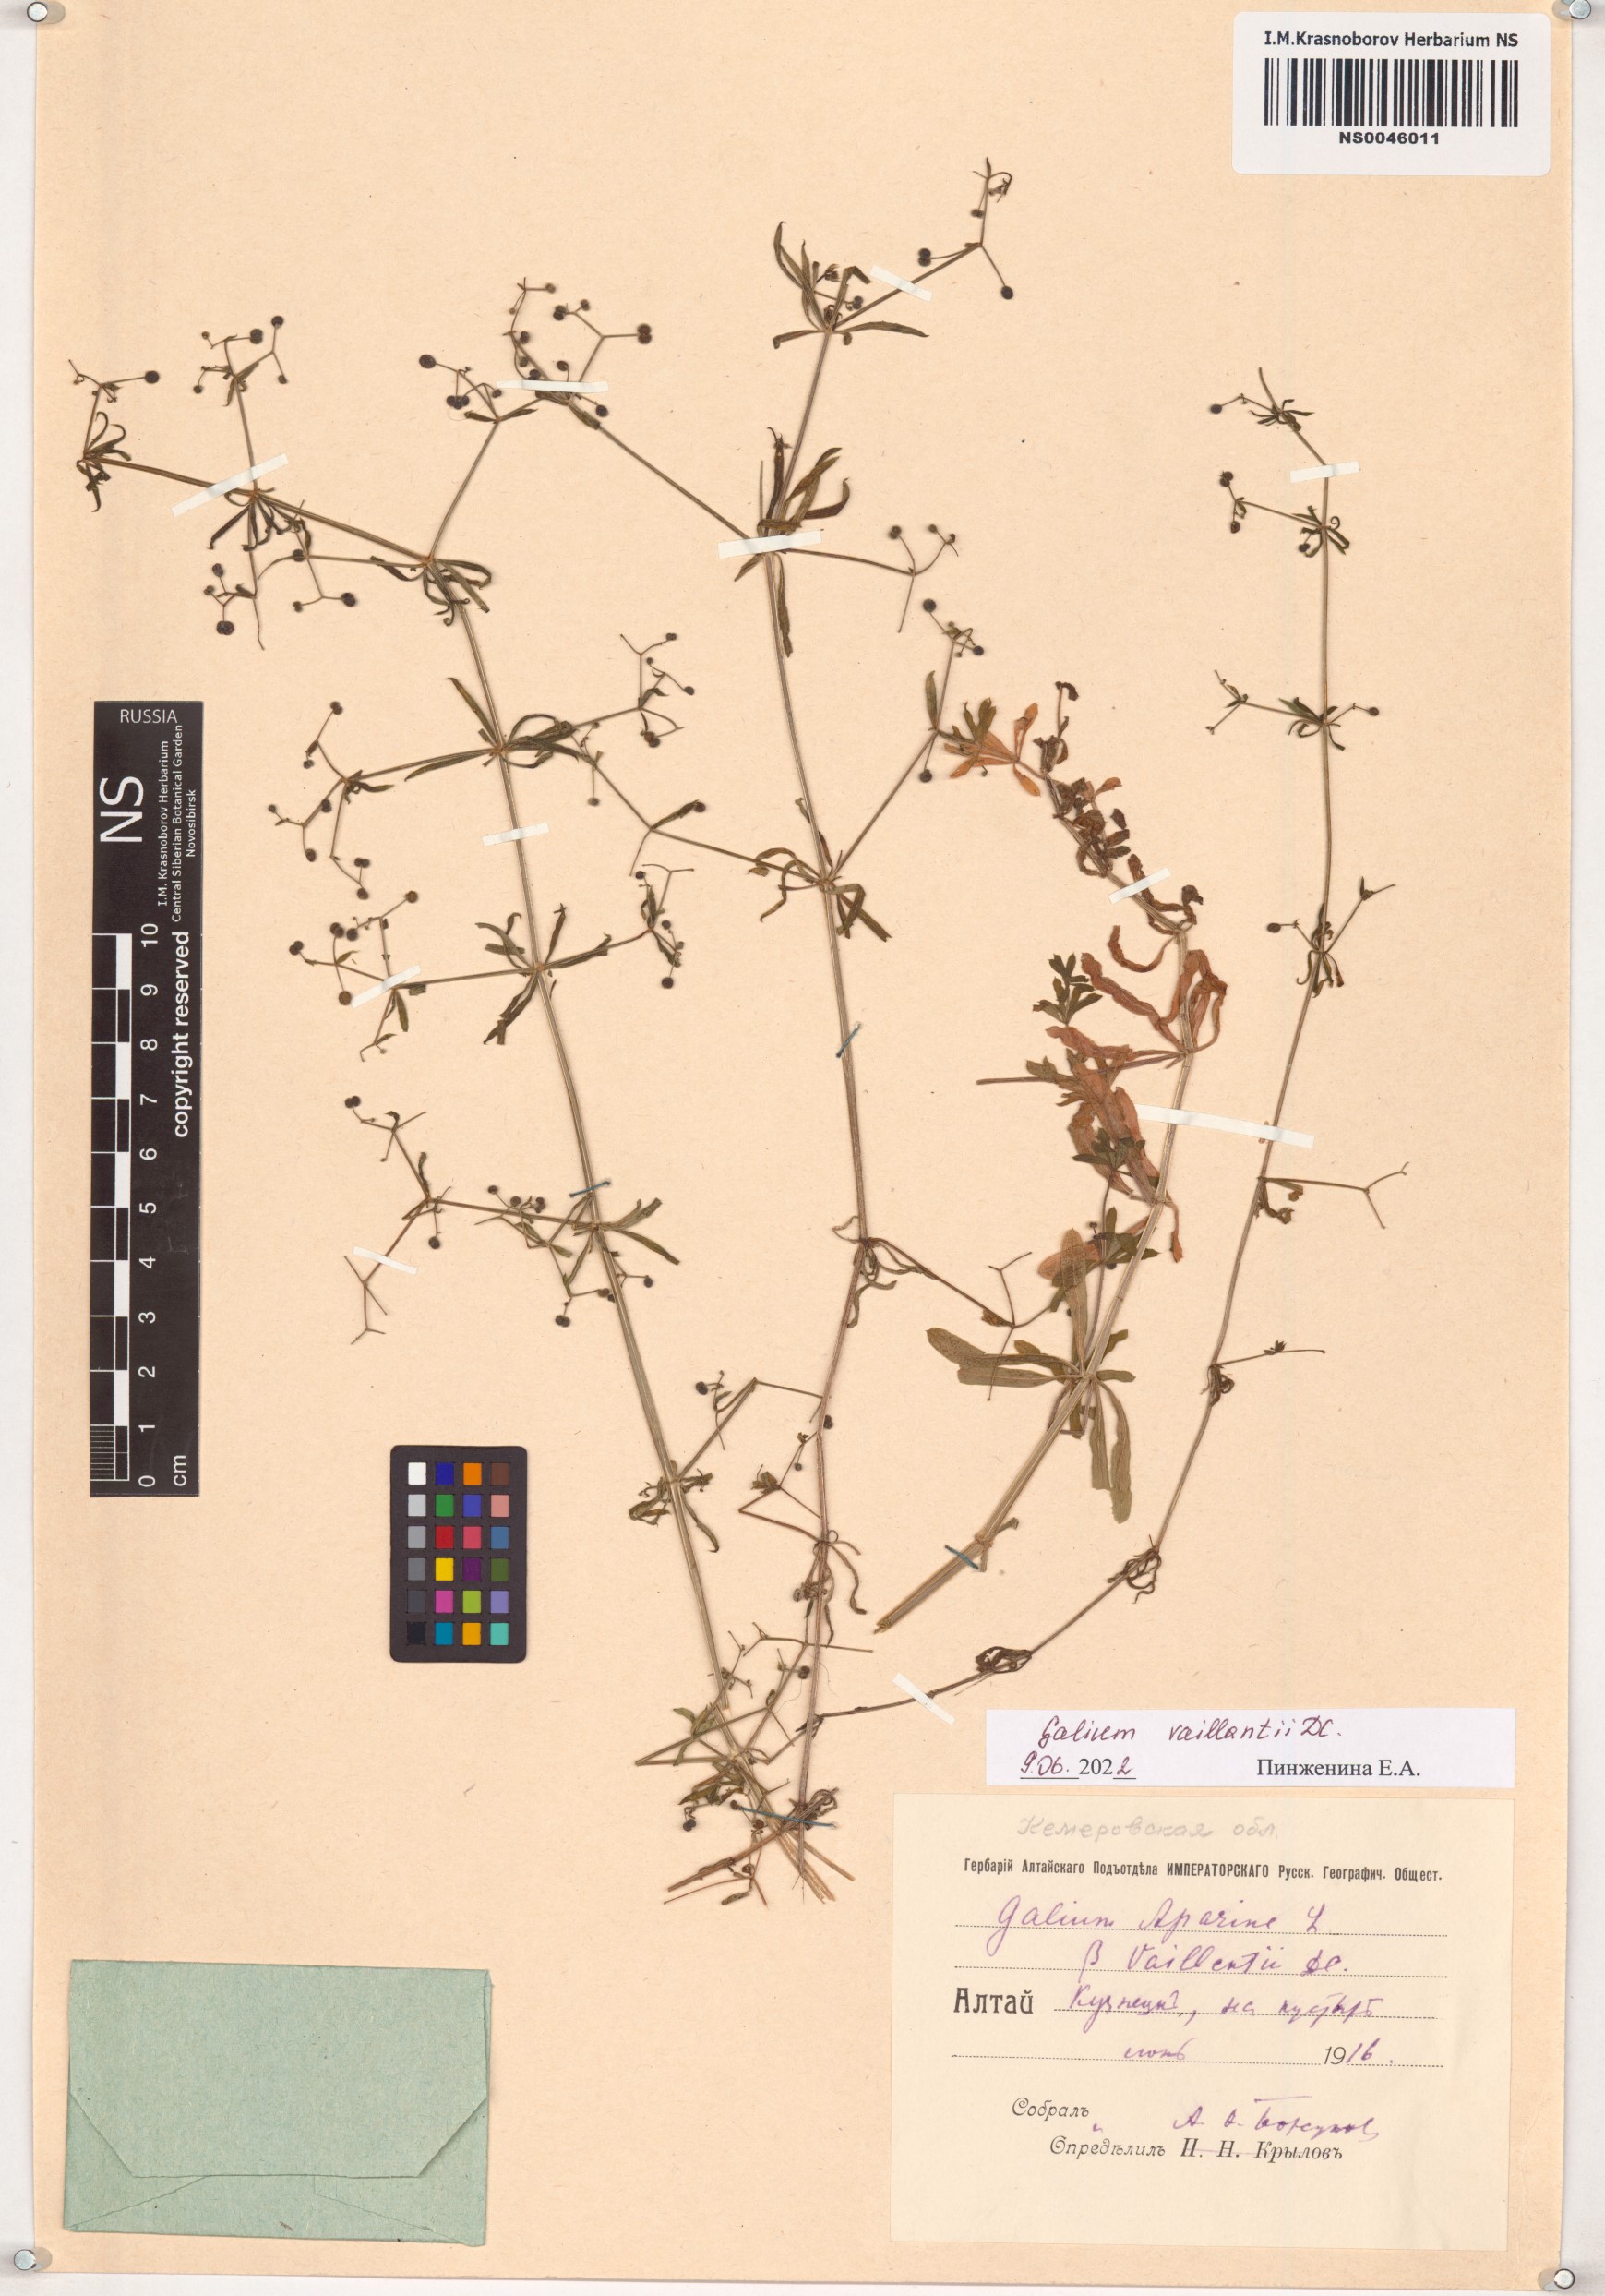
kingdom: Plantae
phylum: Tracheophyta
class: Magnoliopsida
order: Gentianales
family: Rubiaceae
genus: Galium
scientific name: Galium spurium
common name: False cleavers
